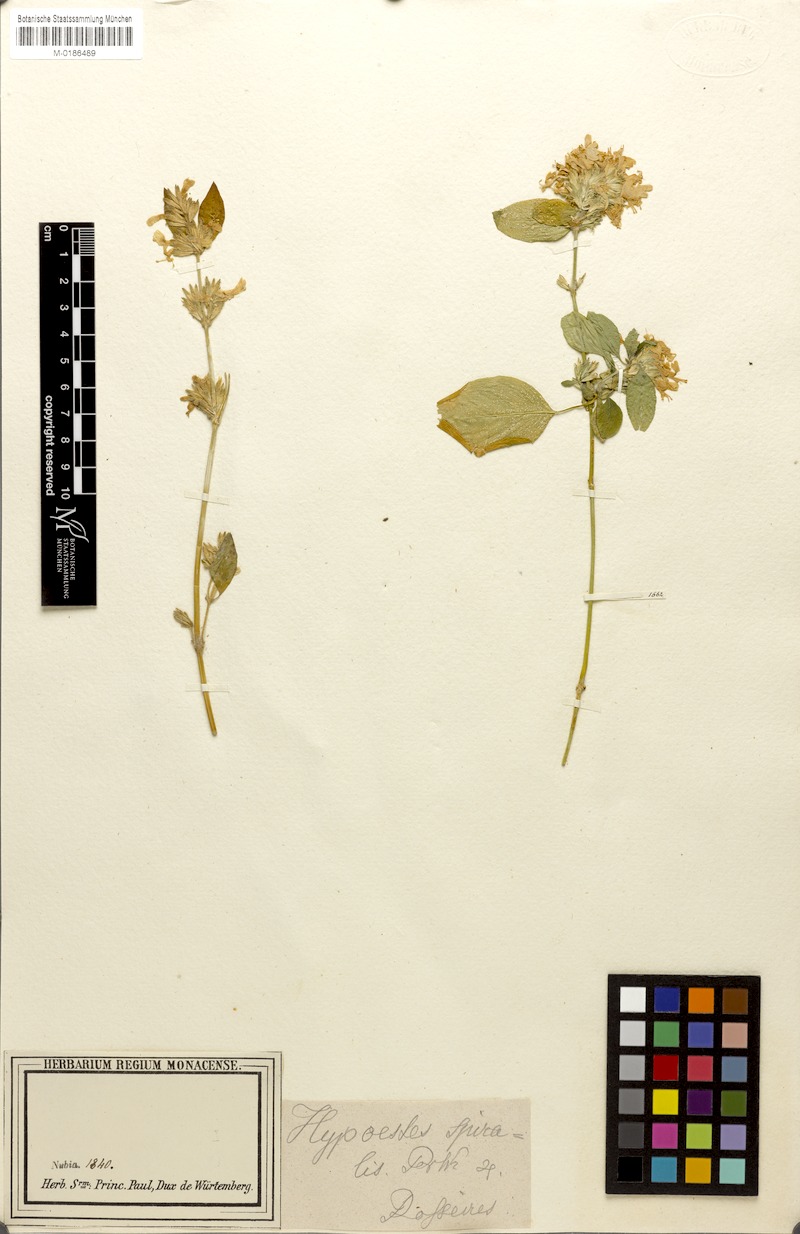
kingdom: Plantae
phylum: Tracheophyta
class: Magnoliopsida
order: Lamiales
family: Acanthaceae
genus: Hypoestes
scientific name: Hypoestes
